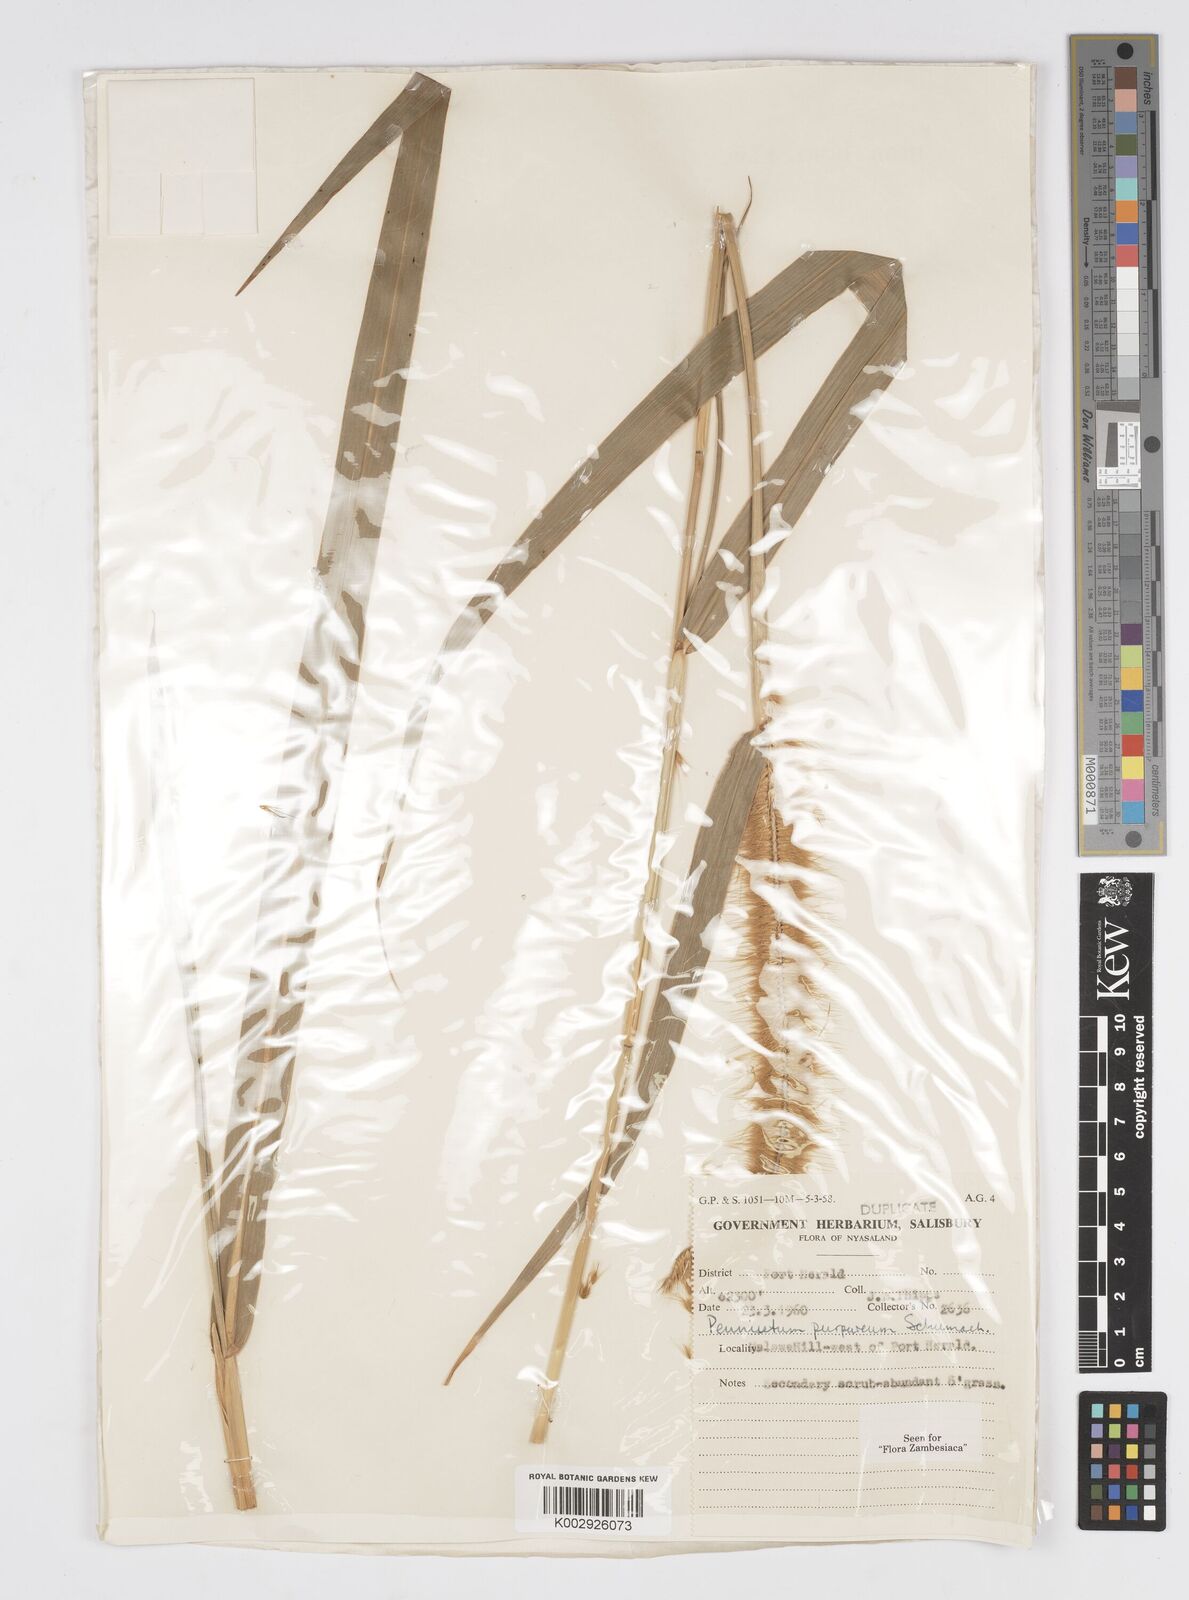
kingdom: Plantae
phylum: Tracheophyta
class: Liliopsida
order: Poales
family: Poaceae
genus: Cenchrus
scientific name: Cenchrus purpureus
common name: Elephant grass
